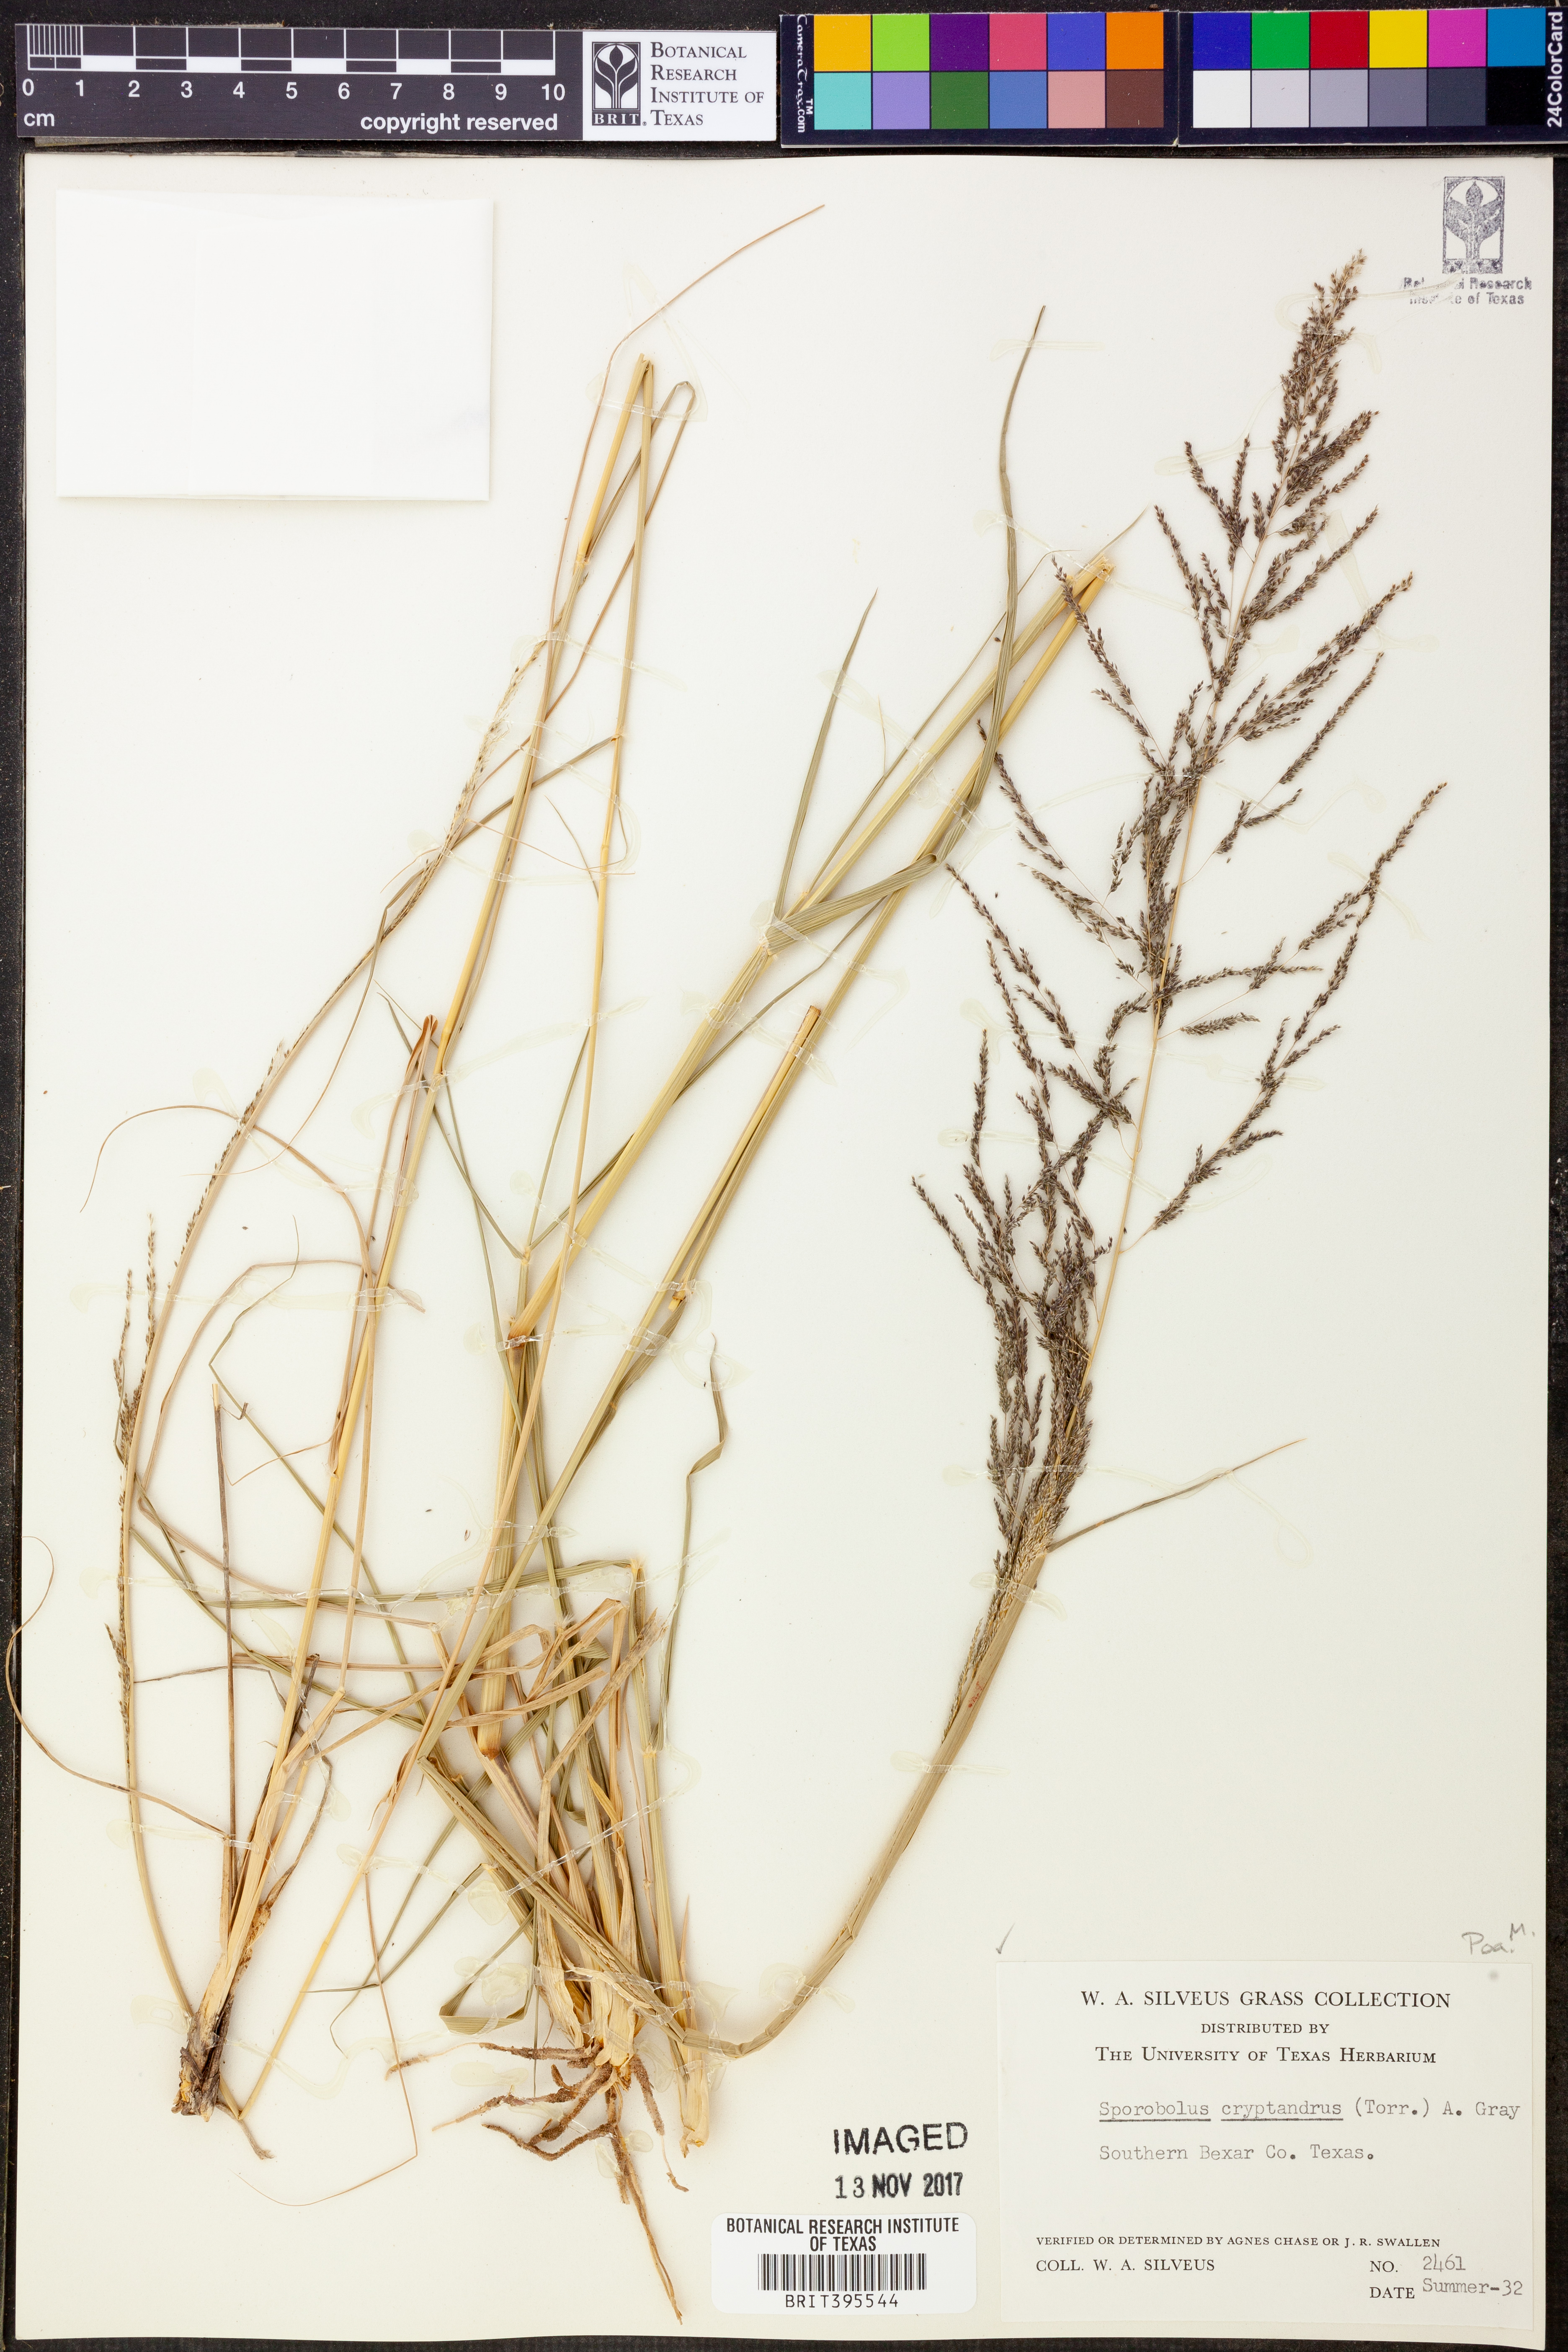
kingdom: Plantae
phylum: Tracheophyta
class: Liliopsida
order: Poales
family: Poaceae
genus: Sporobolus
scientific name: Sporobolus cryptandrus
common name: Sand dropseed
